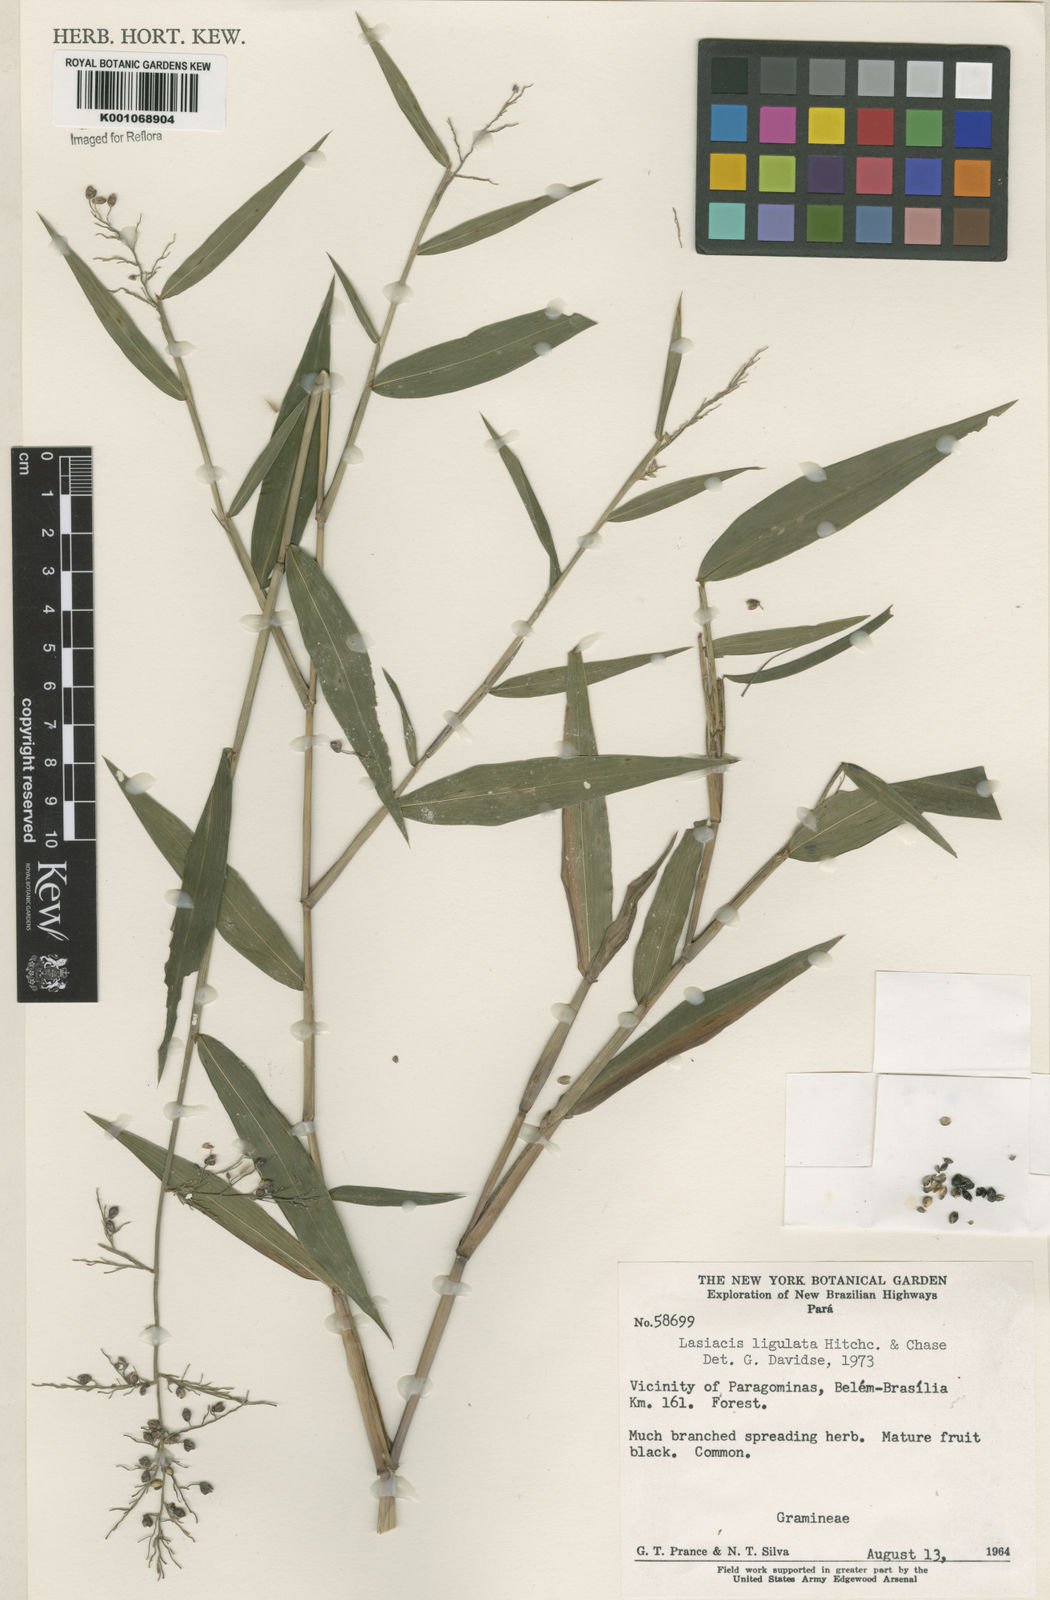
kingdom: Plantae
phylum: Tracheophyta
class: Liliopsida
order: Poales
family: Poaceae
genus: Lasiacis
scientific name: Lasiacis ligulata
